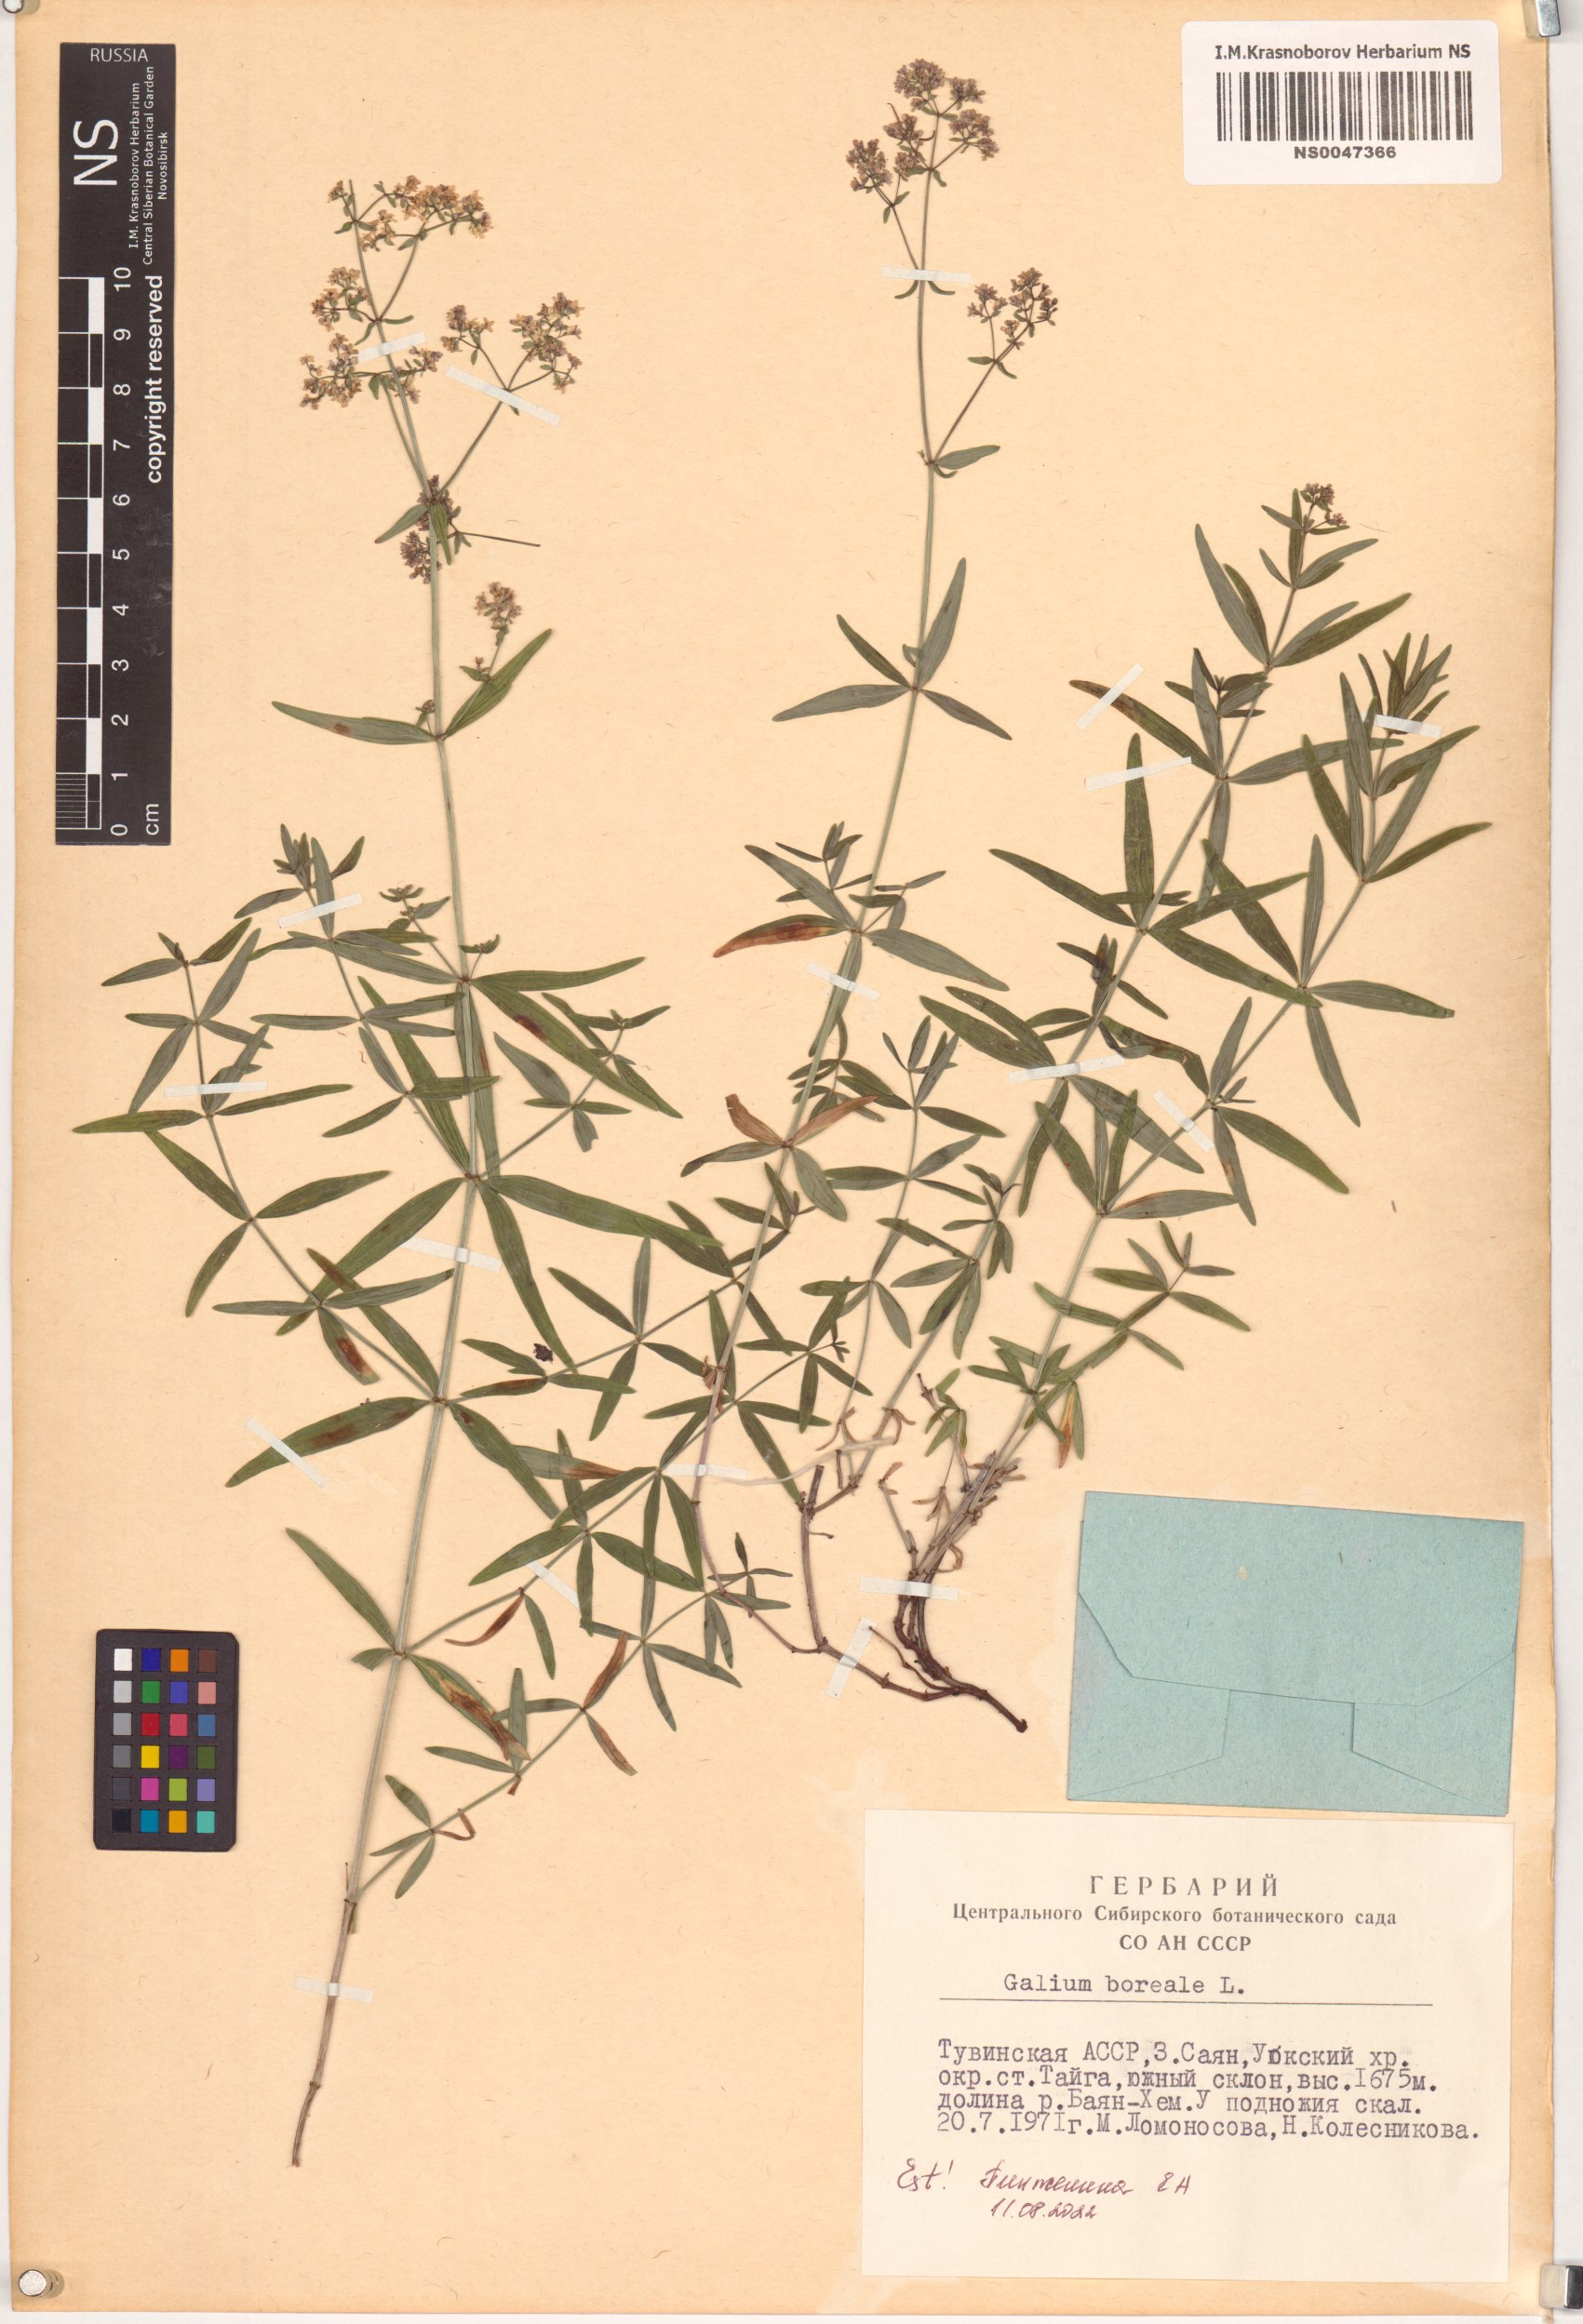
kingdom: Plantae
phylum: Tracheophyta
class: Magnoliopsida
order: Gentianales
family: Rubiaceae
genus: Galium
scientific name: Galium boreale
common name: Northern bedstraw
